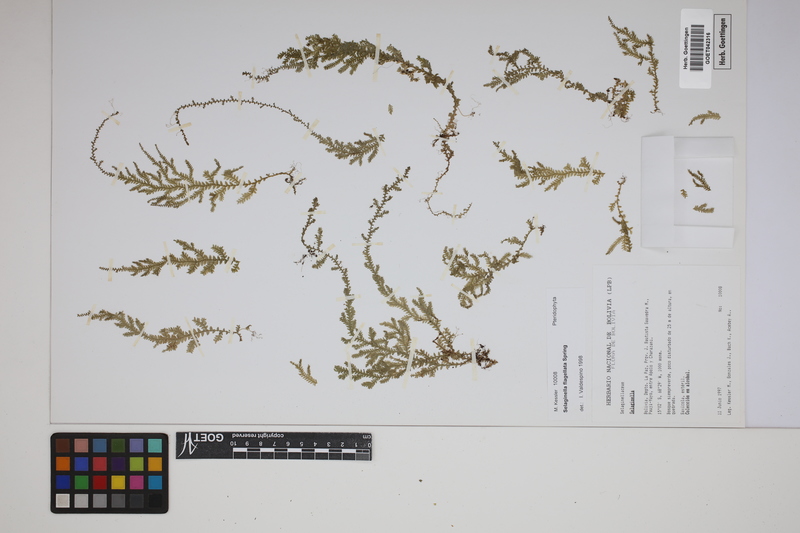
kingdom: Plantae
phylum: Tracheophyta
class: Lycopodiopsida
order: Selaginellales
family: Selaginellaceae
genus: Selaginella
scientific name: Selaginella flagellata
